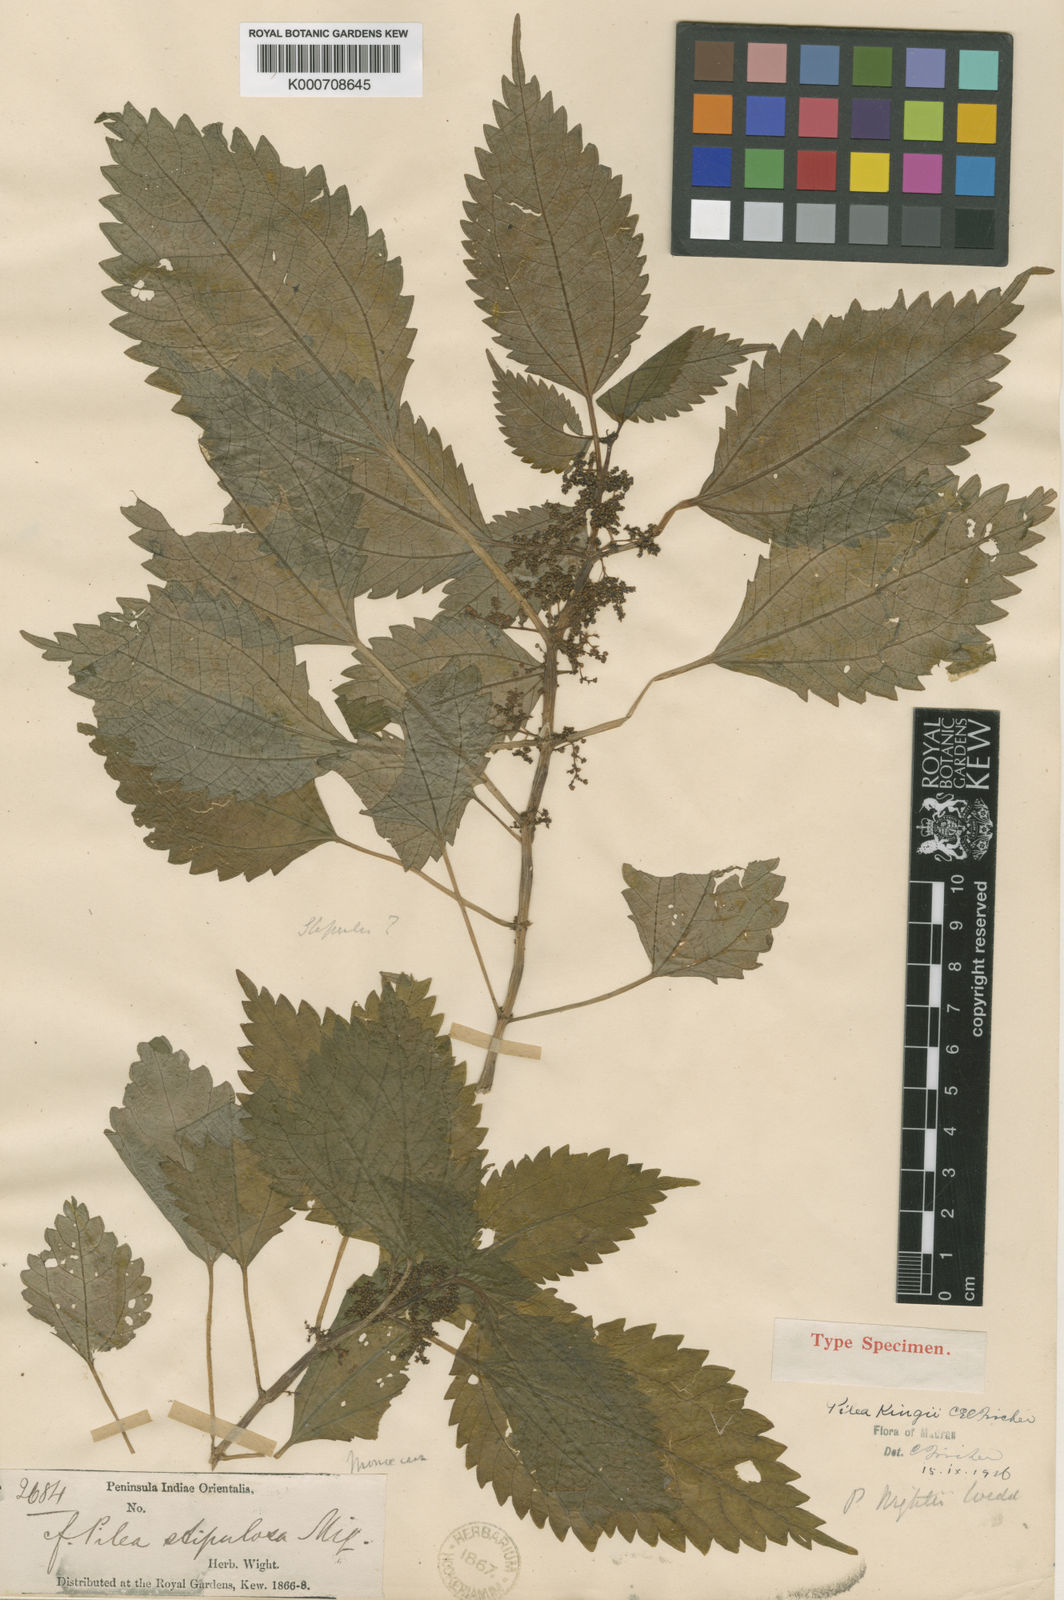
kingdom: Plantae
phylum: Tracheophyta
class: Magnoliopsida
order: Rosales
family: Urticaceae
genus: Pilea
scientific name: Pilea obesa
